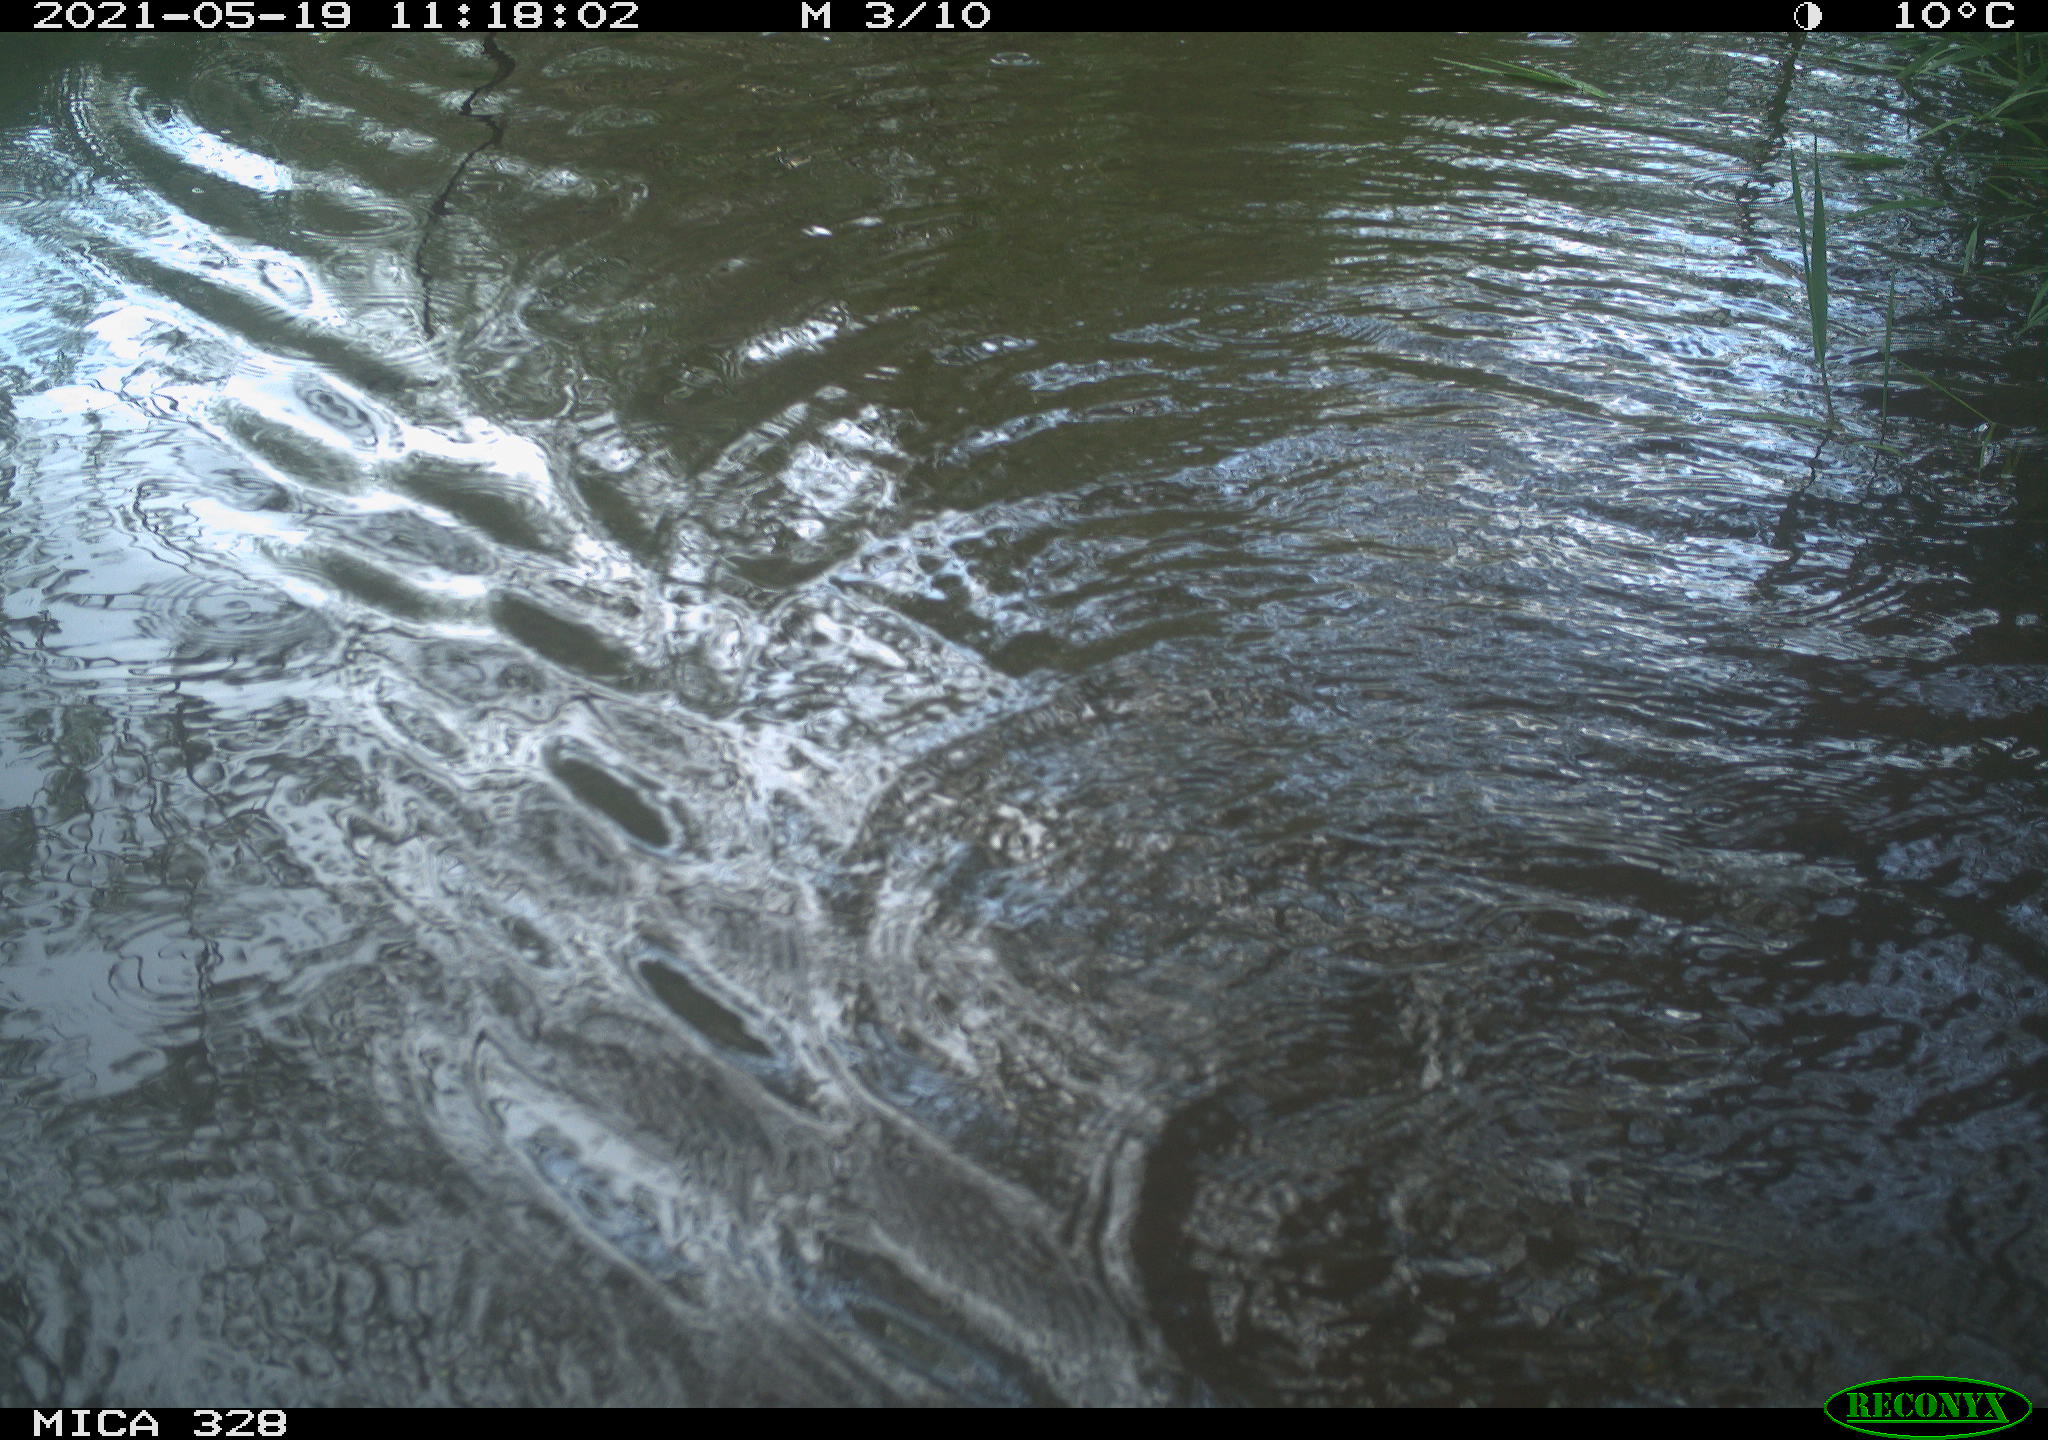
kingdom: Animalia
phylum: Chordata
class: Mammalia
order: Rodentia
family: Cricetidae
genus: Ondatra
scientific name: Ondatra zibethicus
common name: Muskrat
